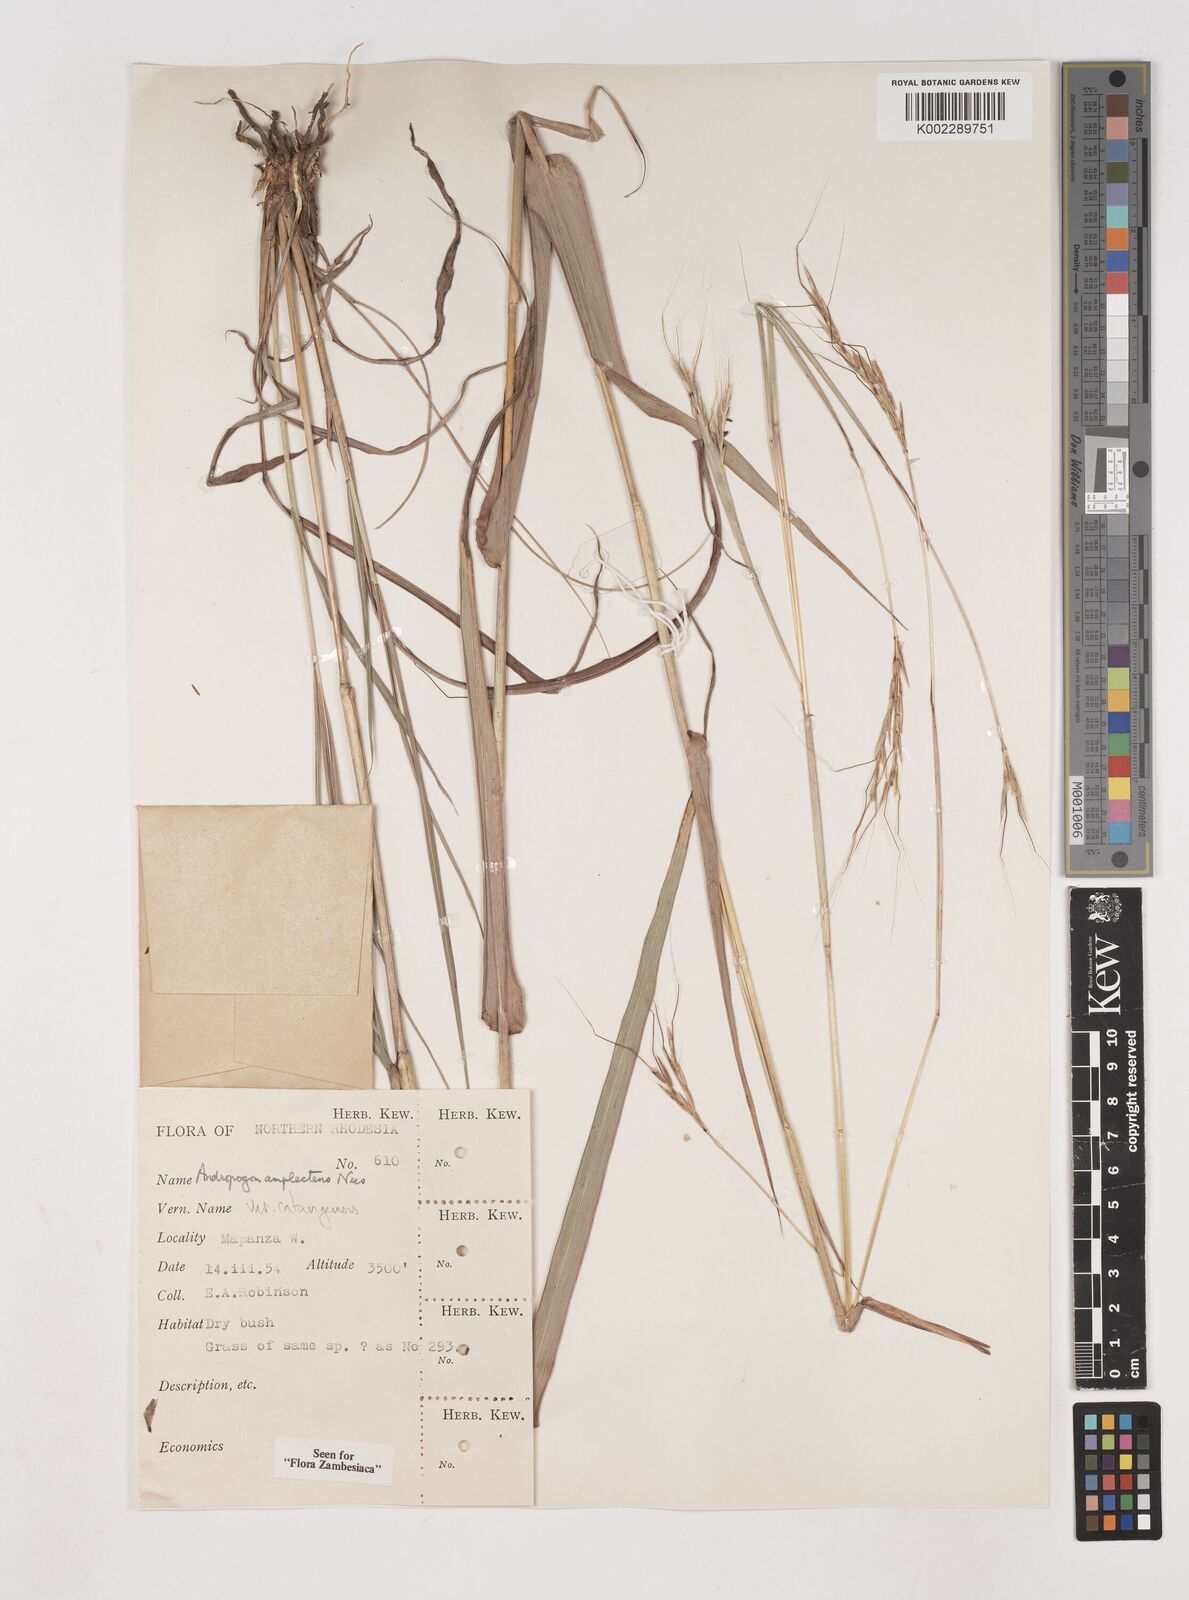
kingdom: Plantae
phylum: Tracheophyta
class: Liliopsida
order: Poales
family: Poaceae
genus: Diheteropogon
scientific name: Diheteropogon amplectens
